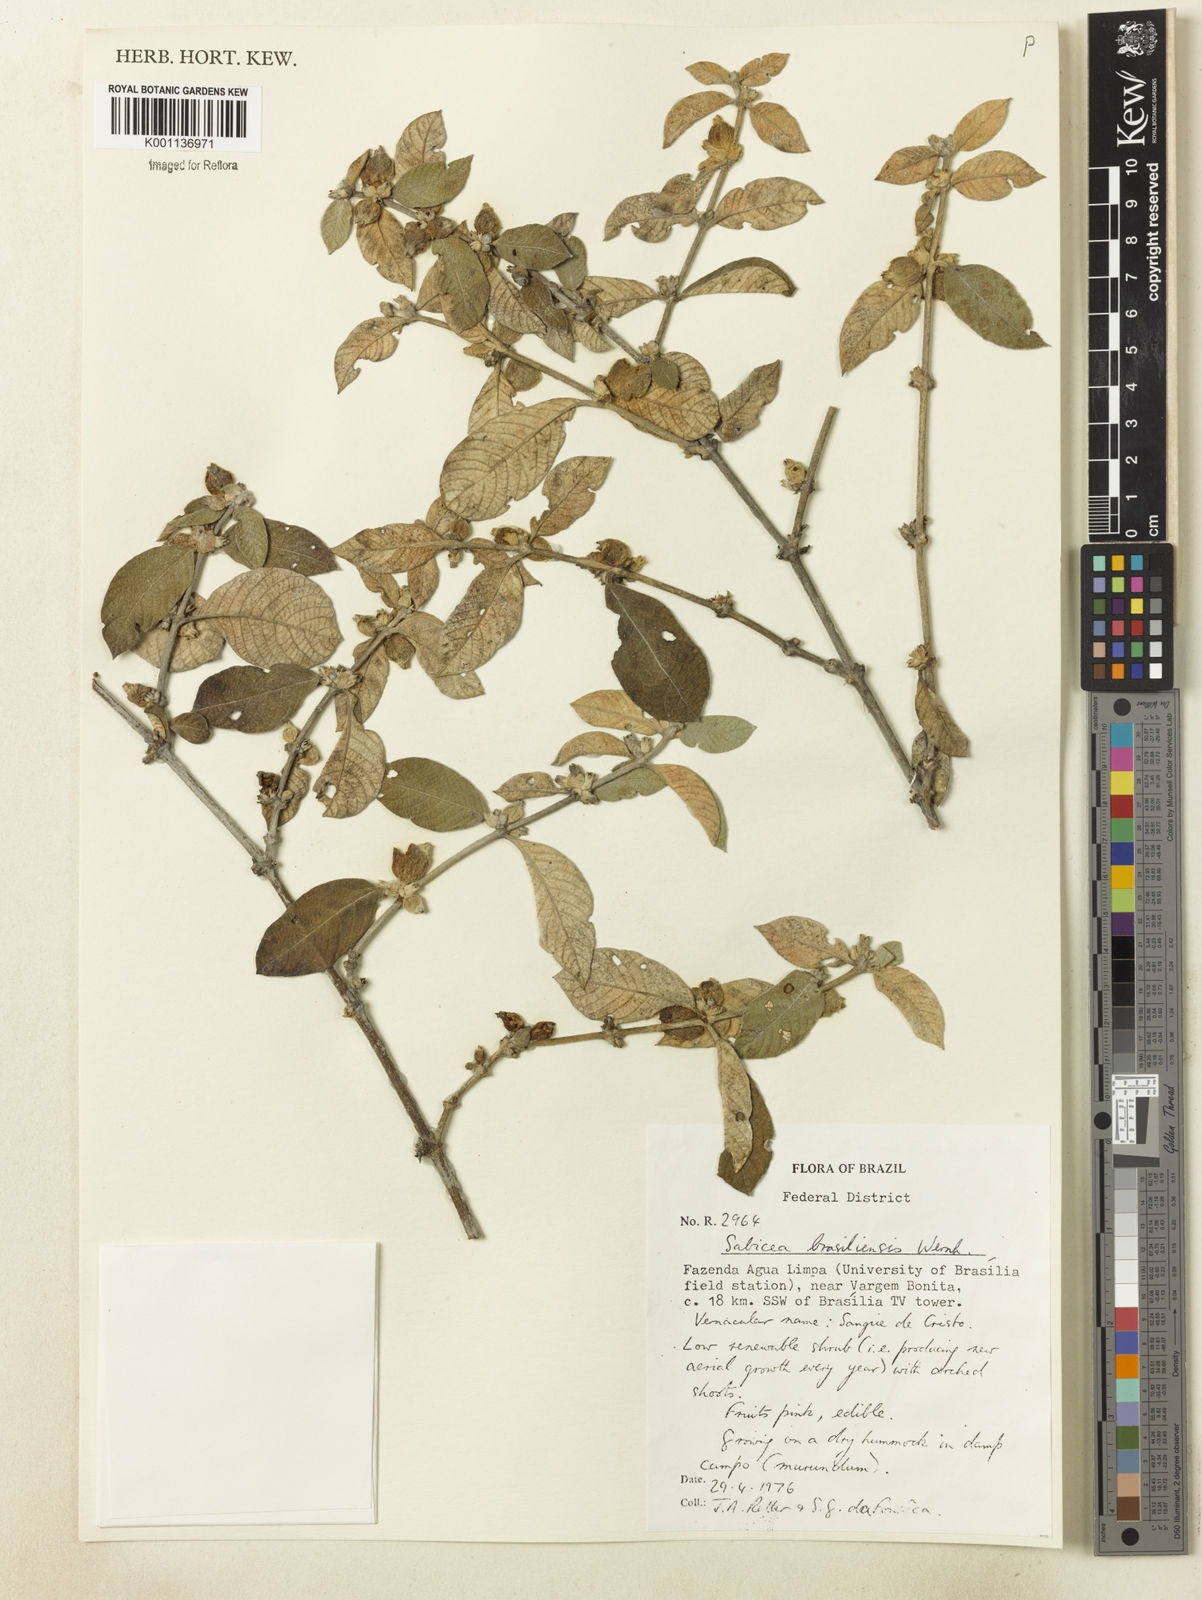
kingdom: Plantae
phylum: Tracheophyta
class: Magnoliopsida
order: Gentianales
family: Rubiaceae
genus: Sabicea
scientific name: Sabicea brasiliensis
